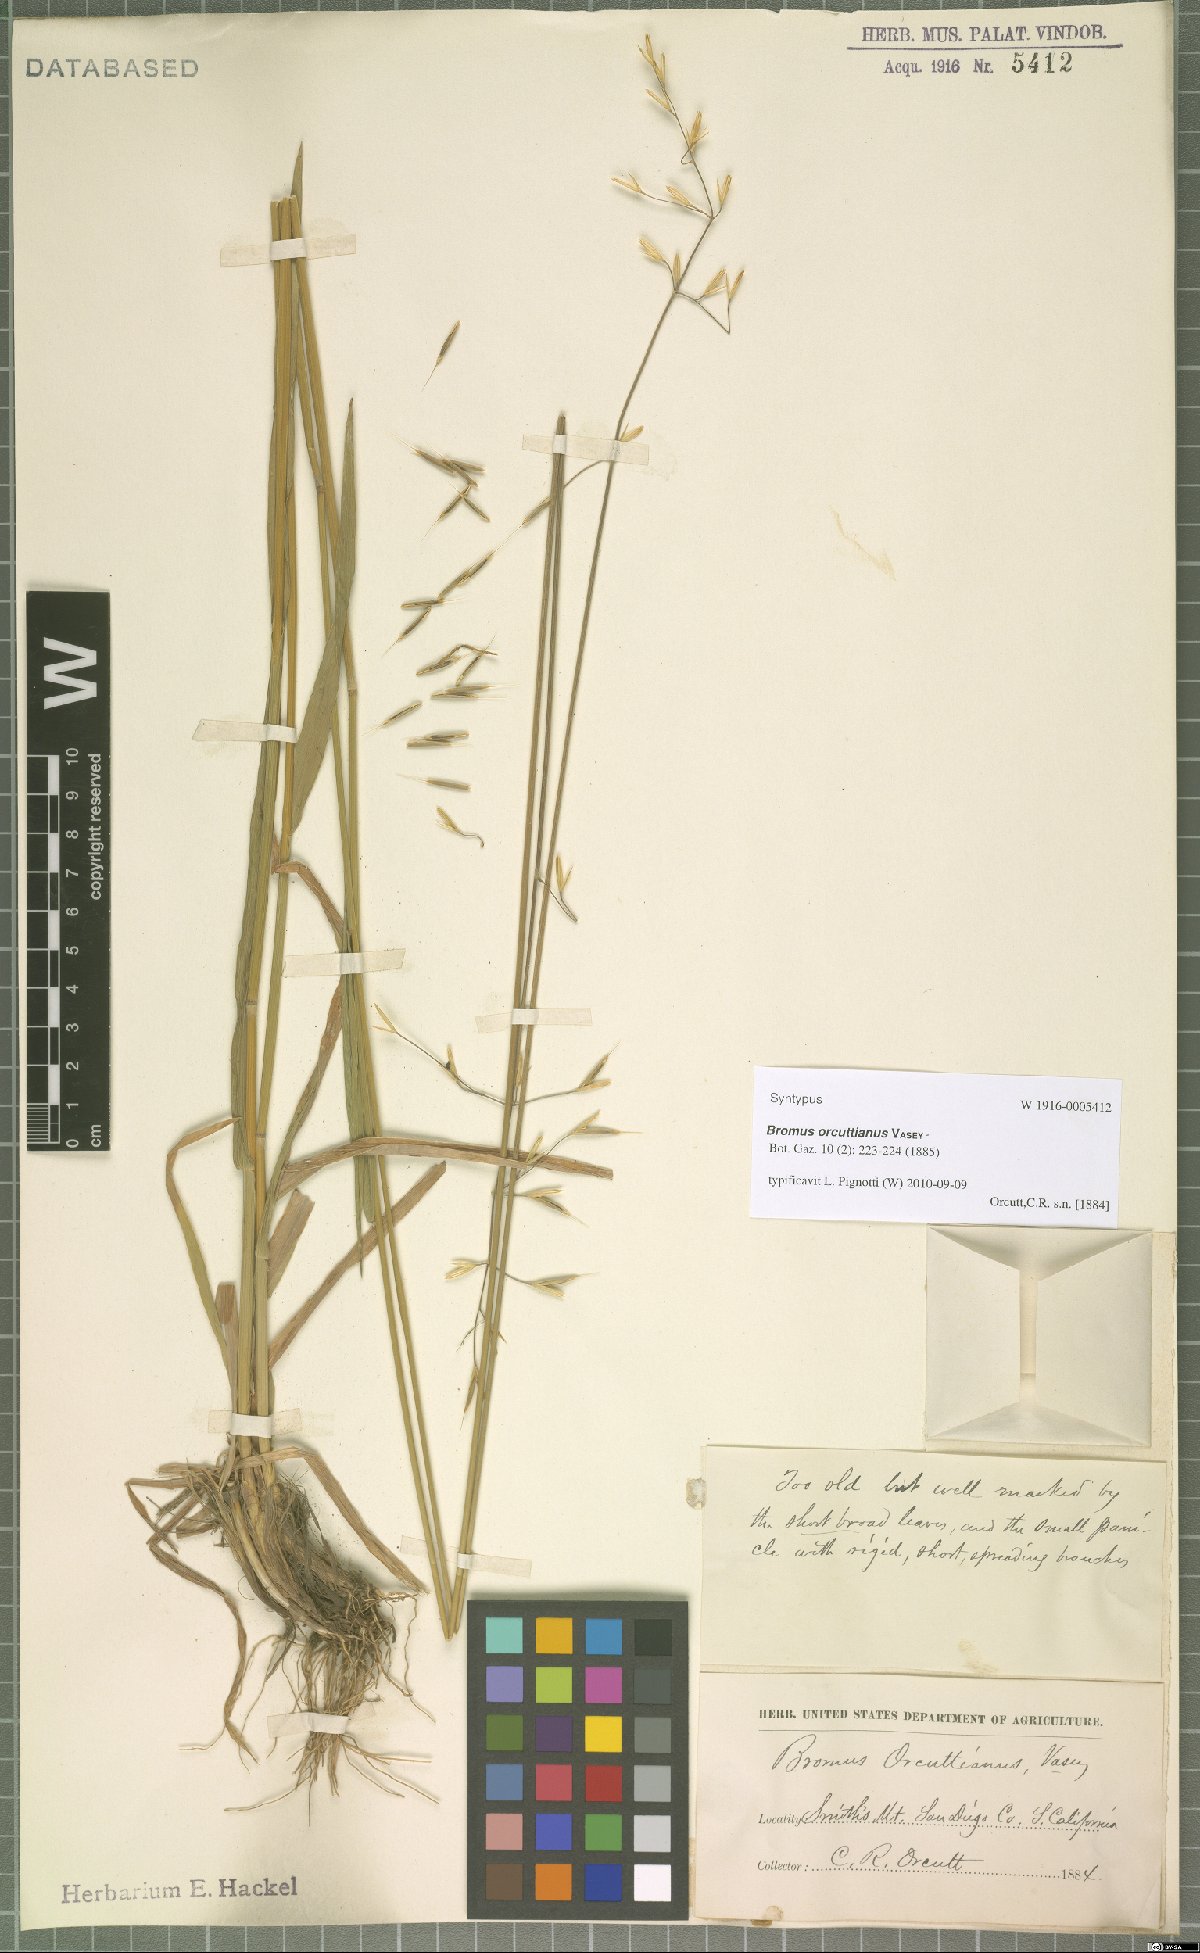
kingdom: Plantae
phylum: Tracheophyta
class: Liliopsida
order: Poales
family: Poaceae
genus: Bromus
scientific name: Bromus orcuttianus
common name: Orcutt's brome
